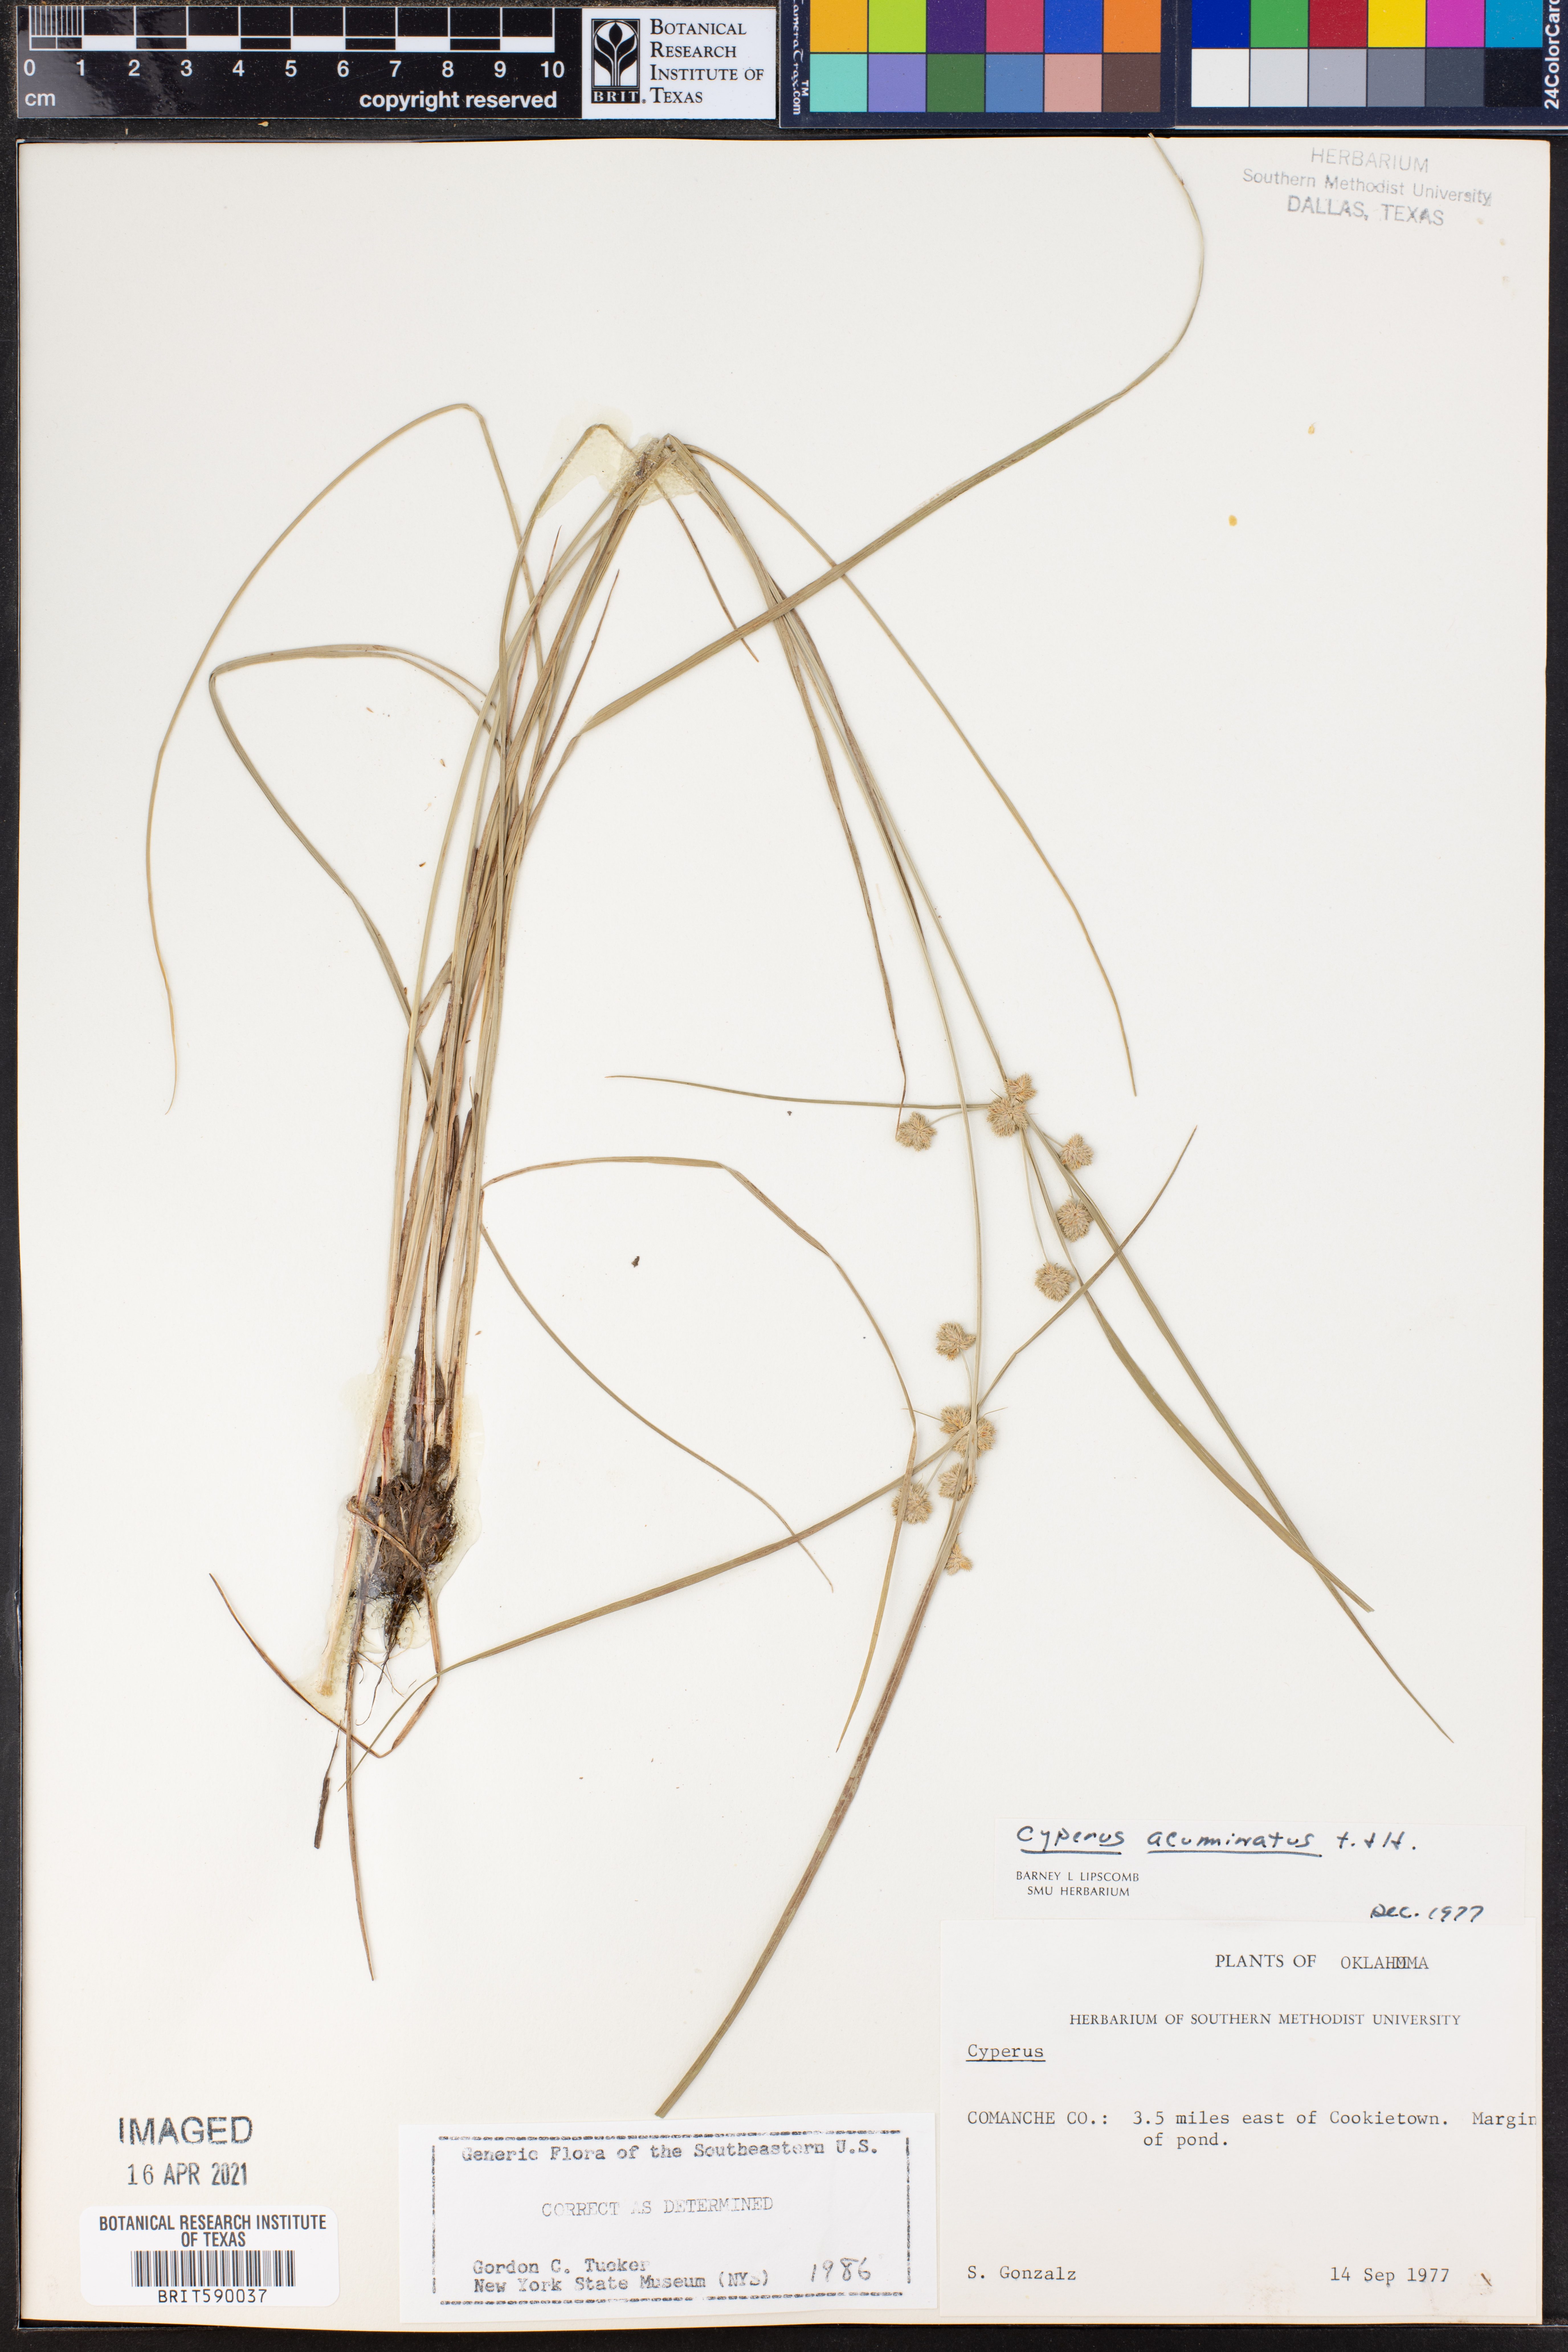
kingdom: Plantae
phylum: Tracheophyta
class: Liliopsida
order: Poales
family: Cyperaceae
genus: Cyperus
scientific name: Cyperus acuminatus
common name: Short-pointed cyperus
